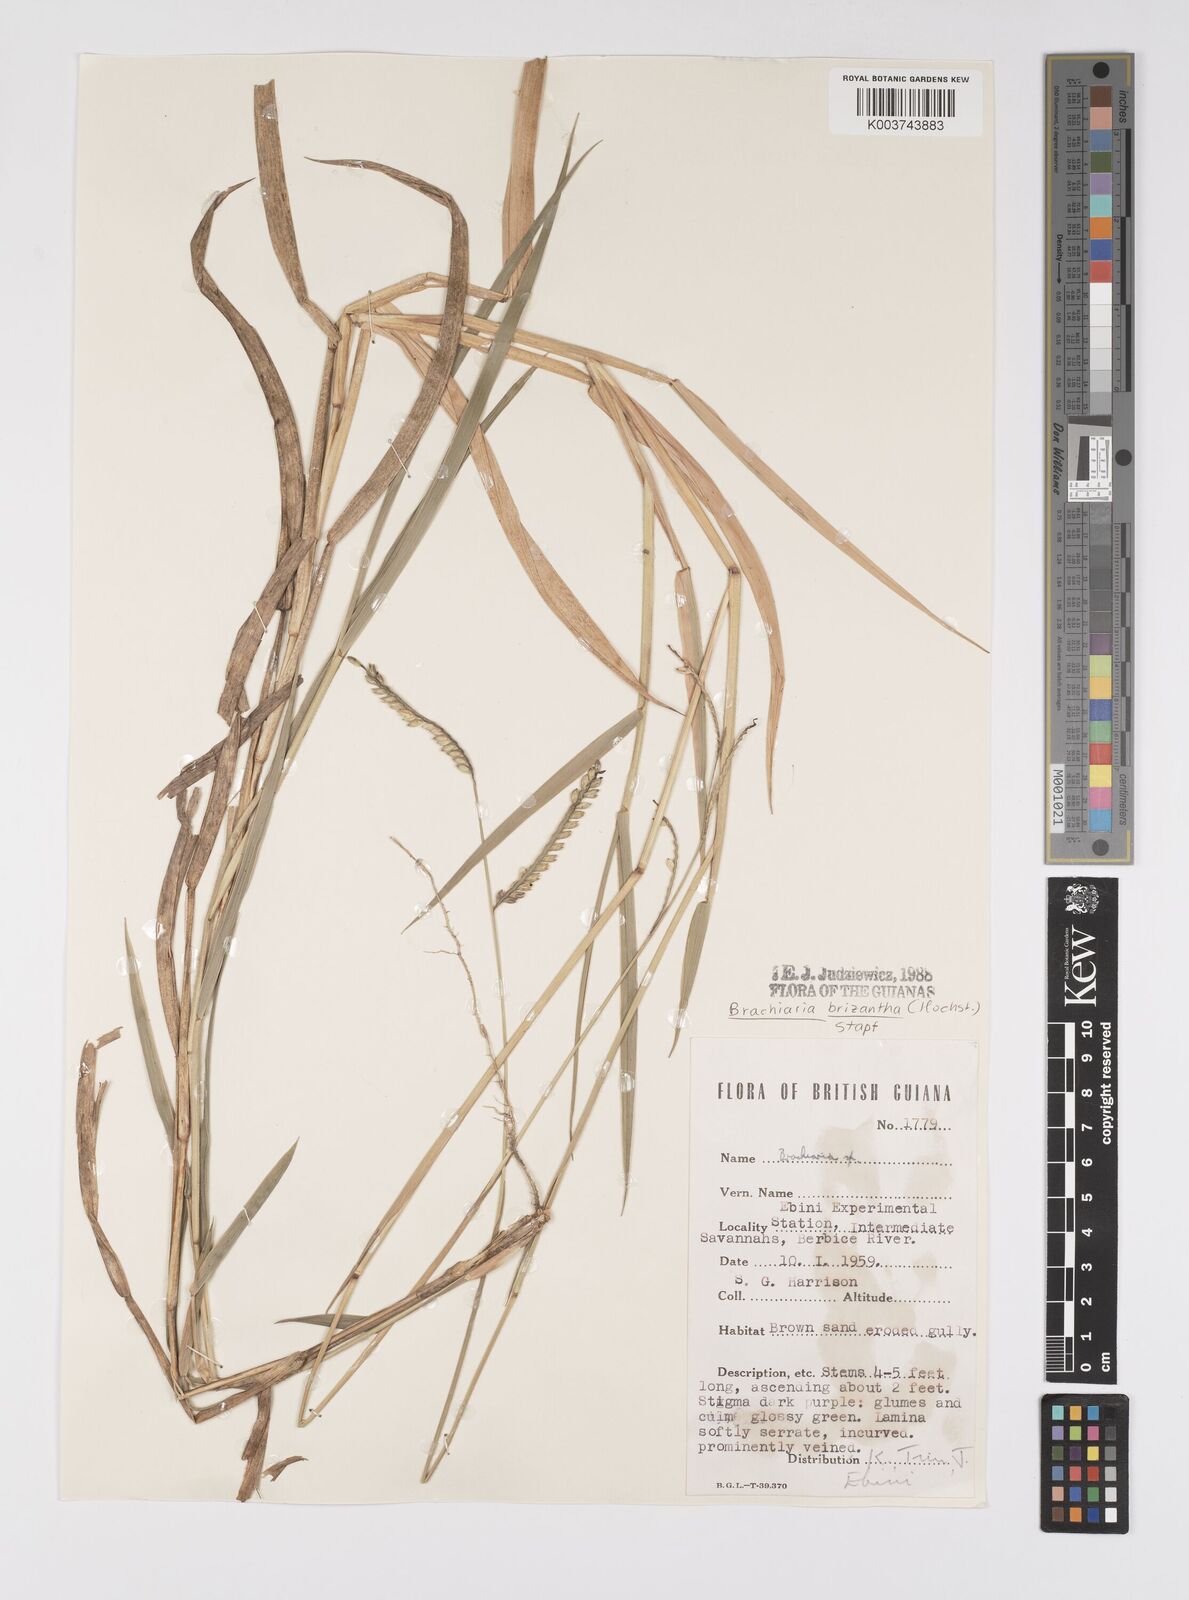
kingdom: Plantae
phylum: Tracheophyta
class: Liliopsida
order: Poales
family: Poaceae
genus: Urochloa
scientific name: Urochloa brizantha
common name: Palisade signalgrass
